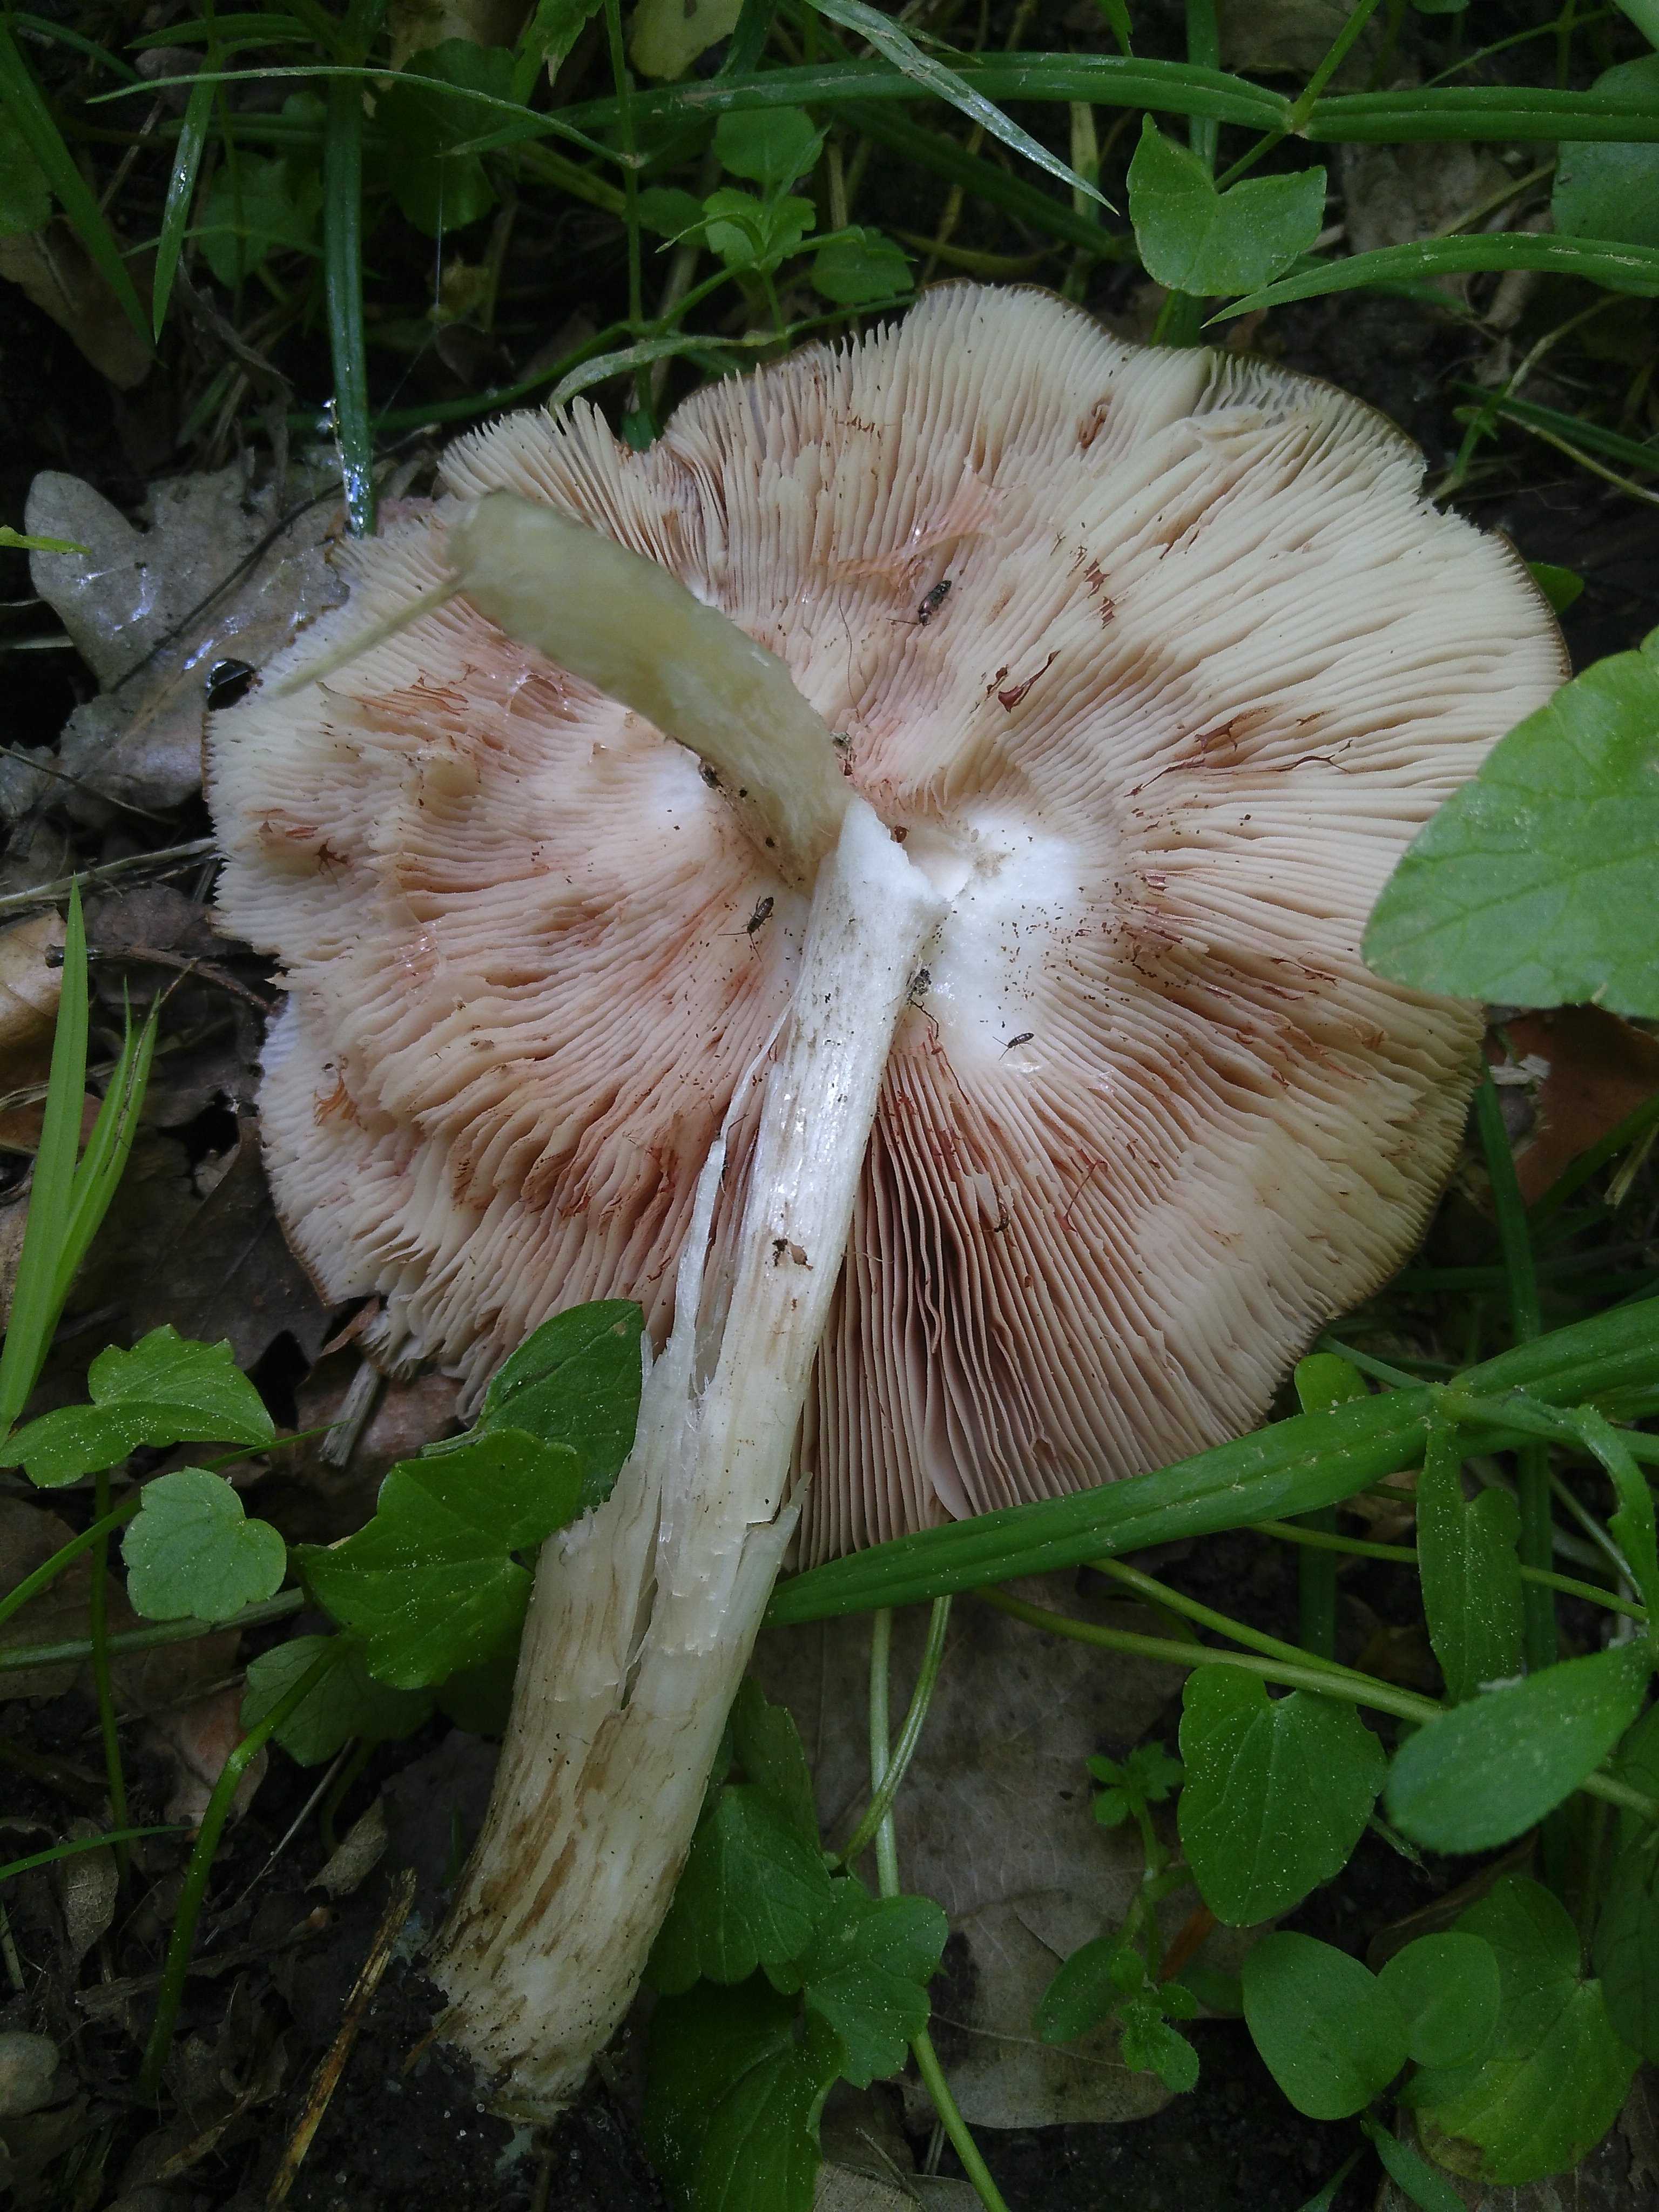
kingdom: Fungi
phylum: Basidiomycota
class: Agaricomycetes
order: Agaricales
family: Pluteaceae
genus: Pluteus
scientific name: Pluteus cervinus
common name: sodfarvet skærmhat
